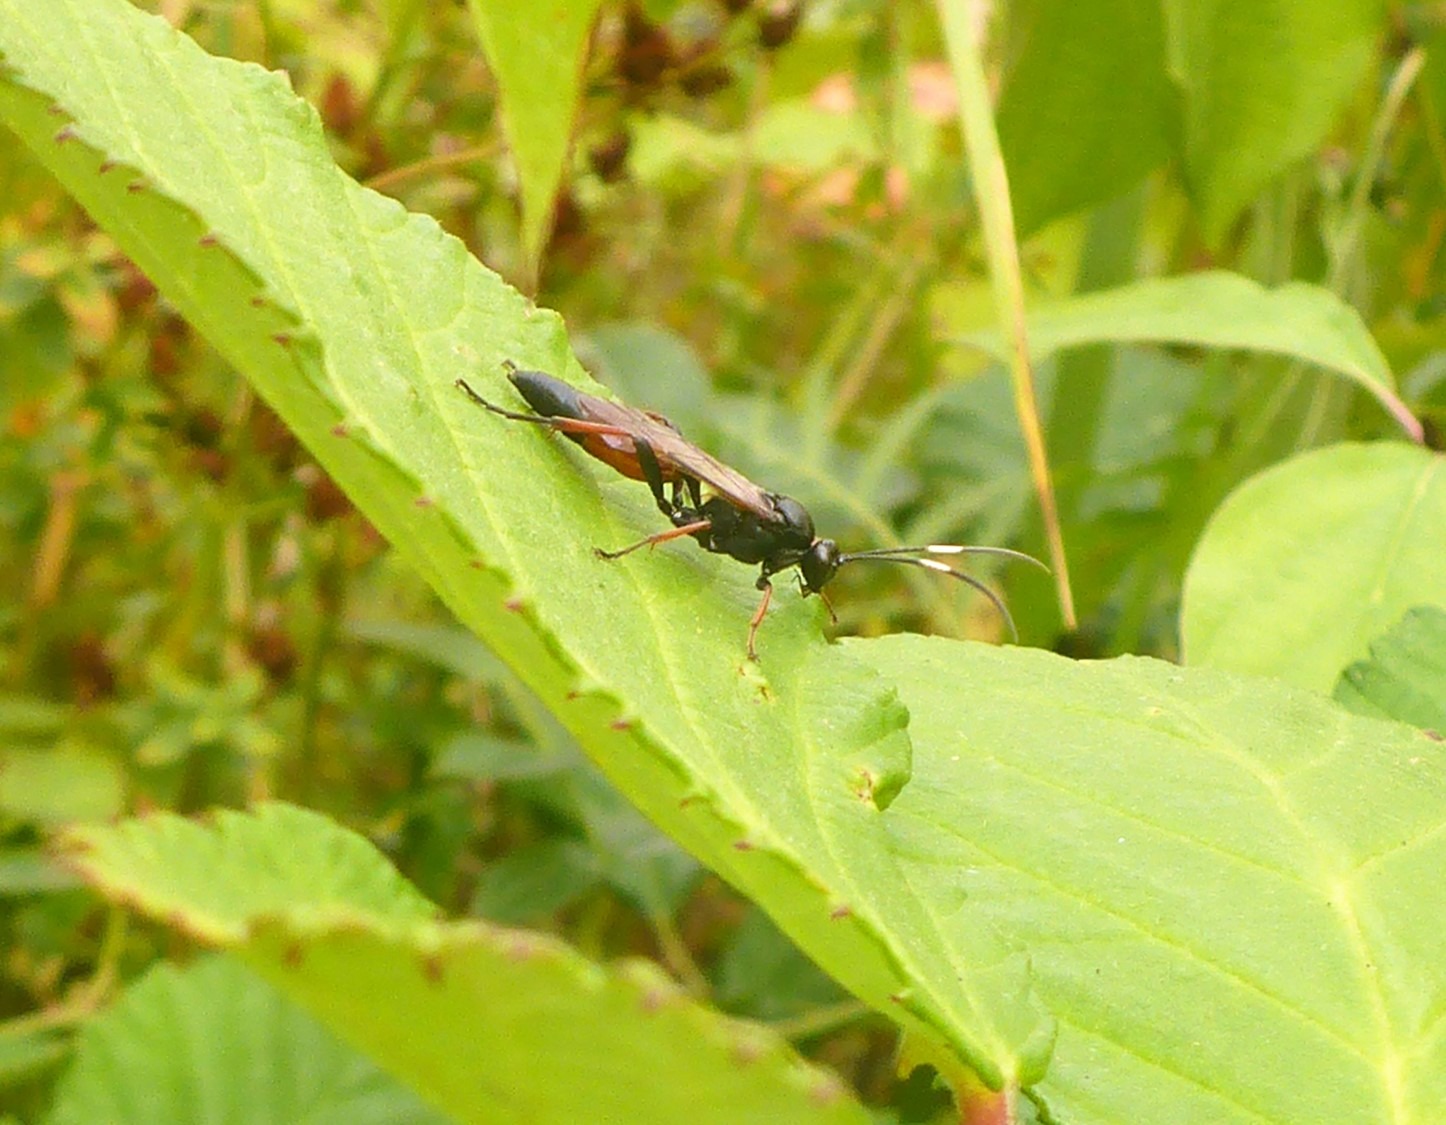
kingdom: Animalia
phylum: Arthropoda
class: Insecta
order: Hymenoptera
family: Ichneumonidae
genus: Stenichneumon
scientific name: Stenichneumon culpator
